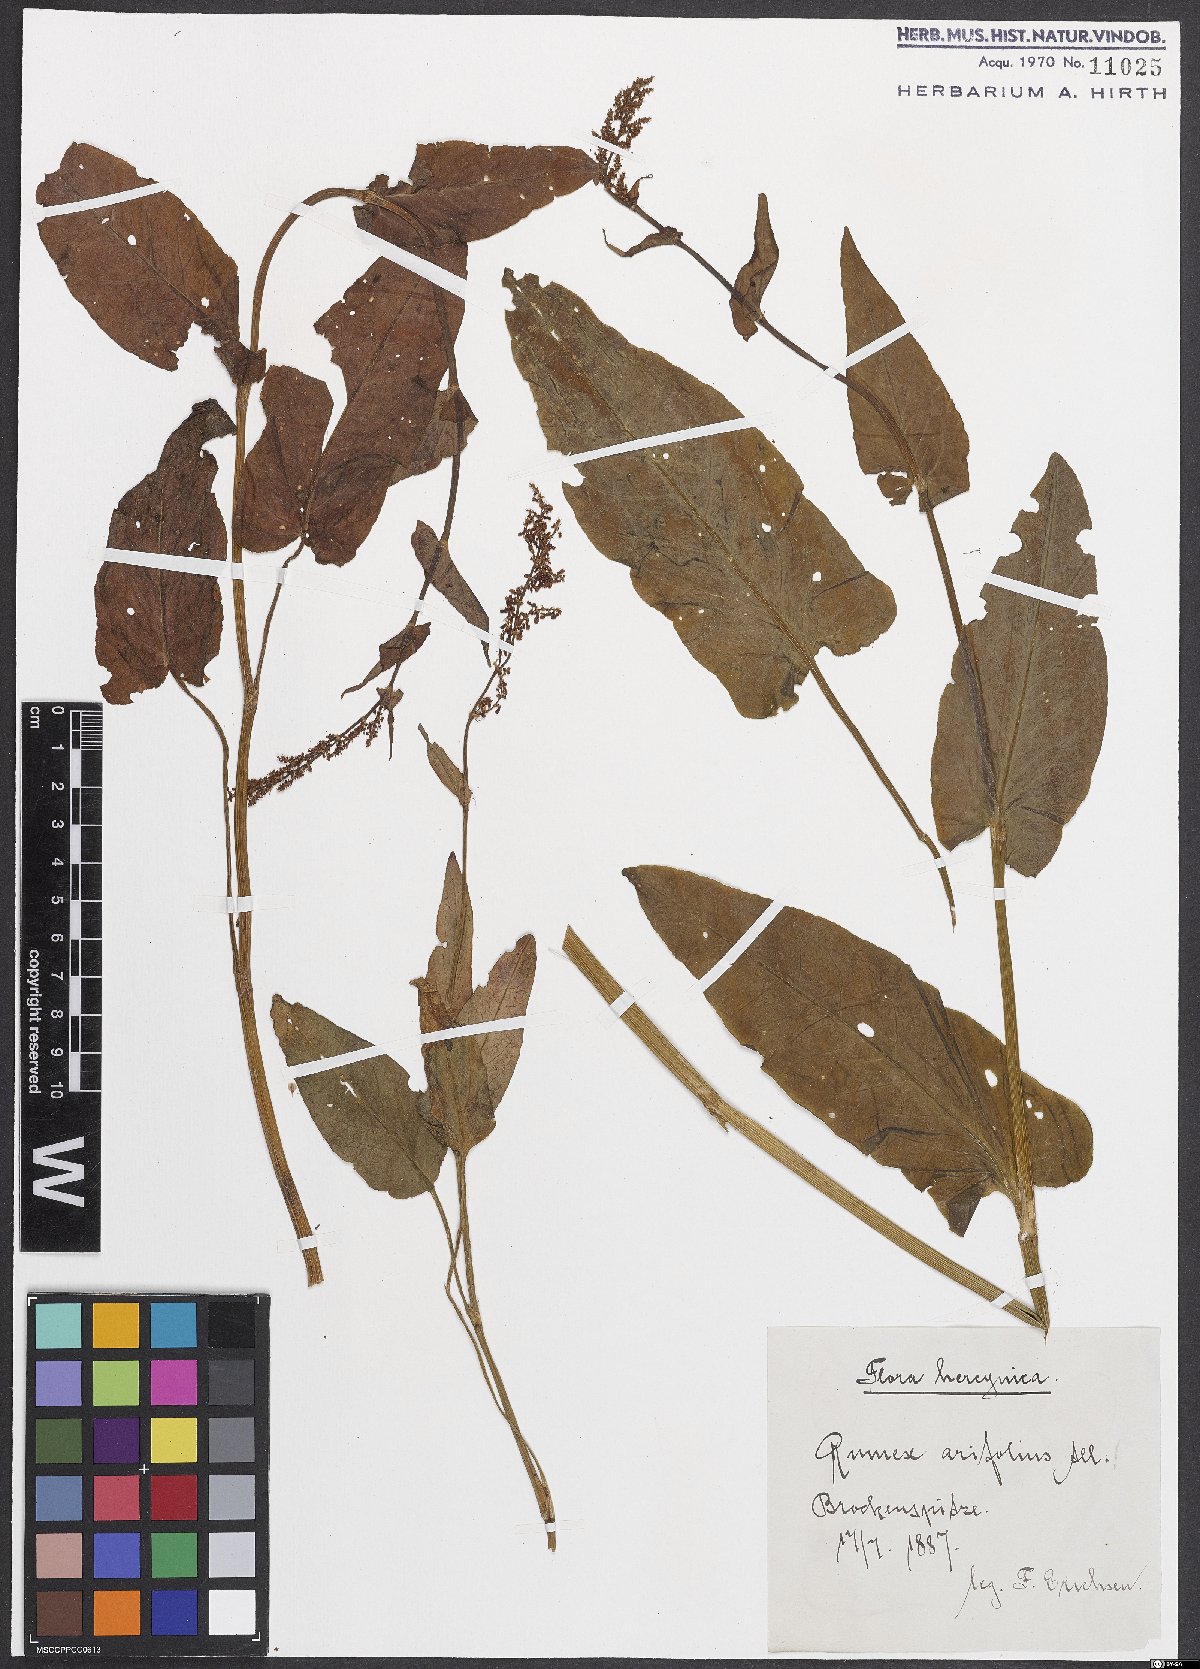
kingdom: Plantae
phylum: Tracheophyta
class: Magnoliopsida
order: Caryophyllales
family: Polygonaceae
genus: Rumex
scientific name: Rumex arifolius
